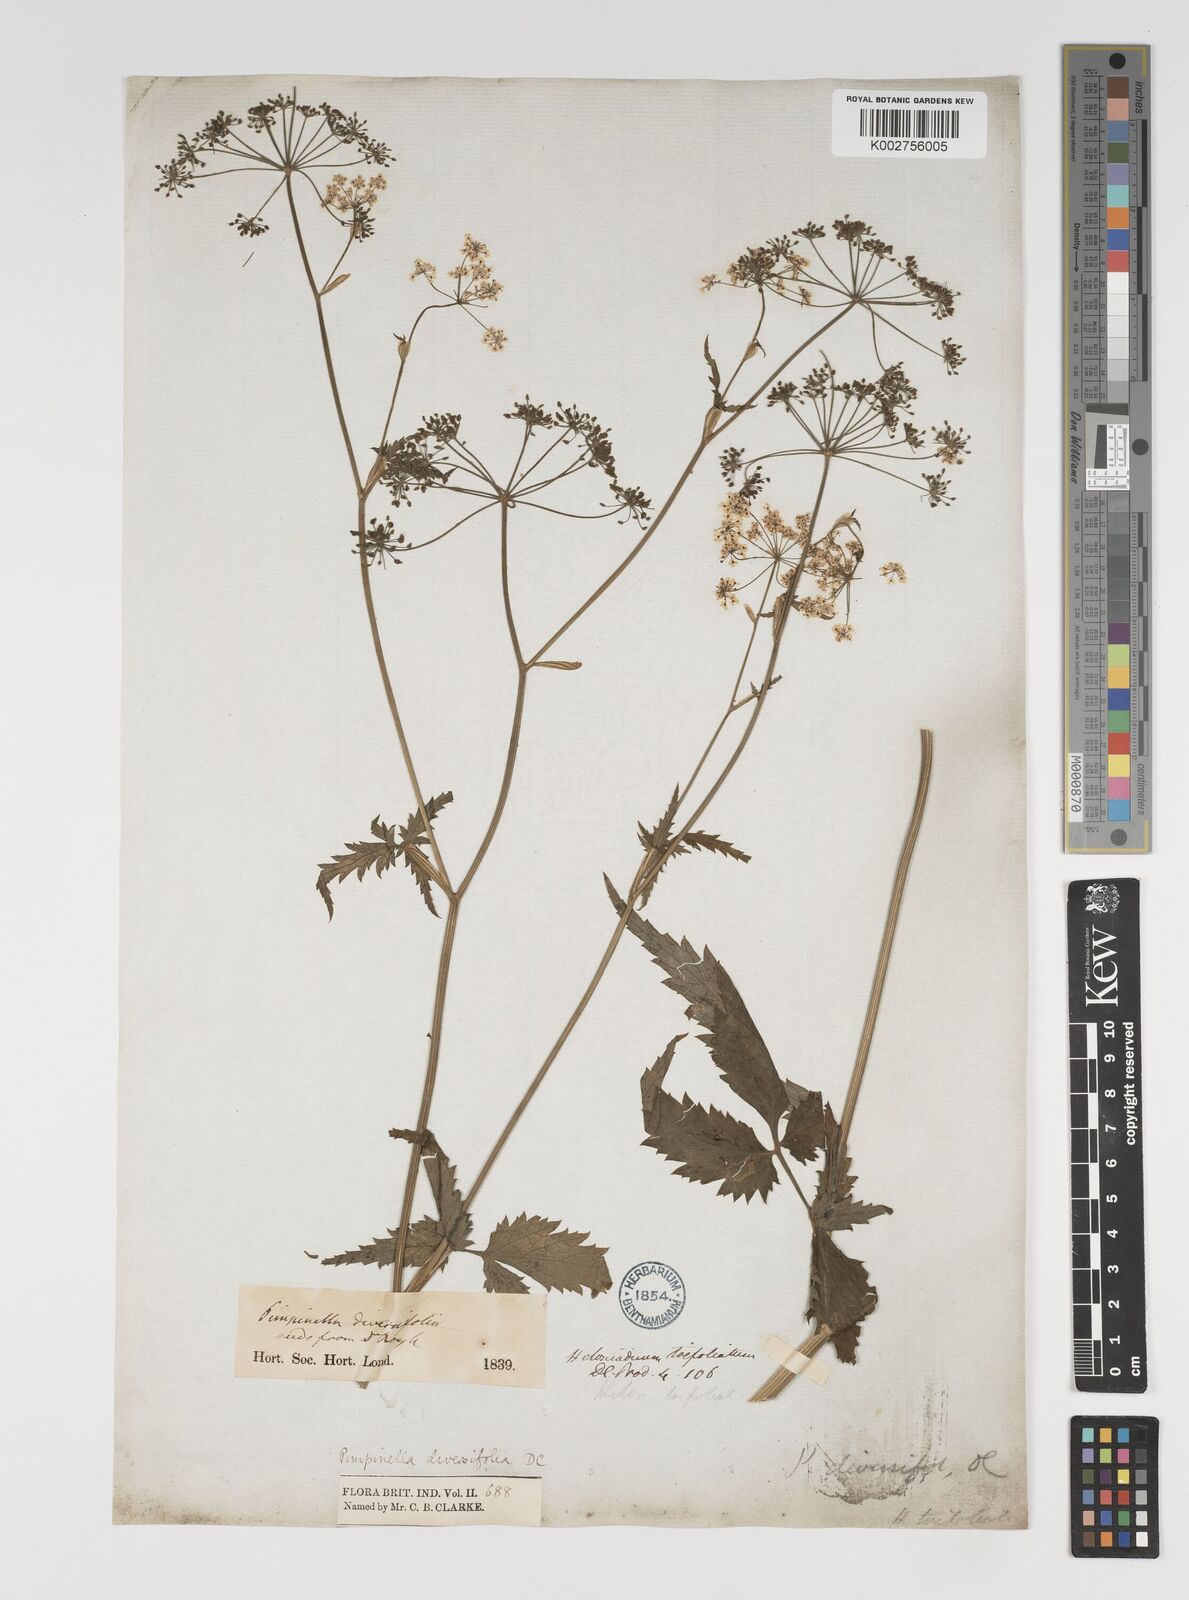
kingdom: Plantae
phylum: Tracheophyta
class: Magnoliopsida
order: Apiales
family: Apiaceae
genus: Pimpinella
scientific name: Pimpinella diversifolia
